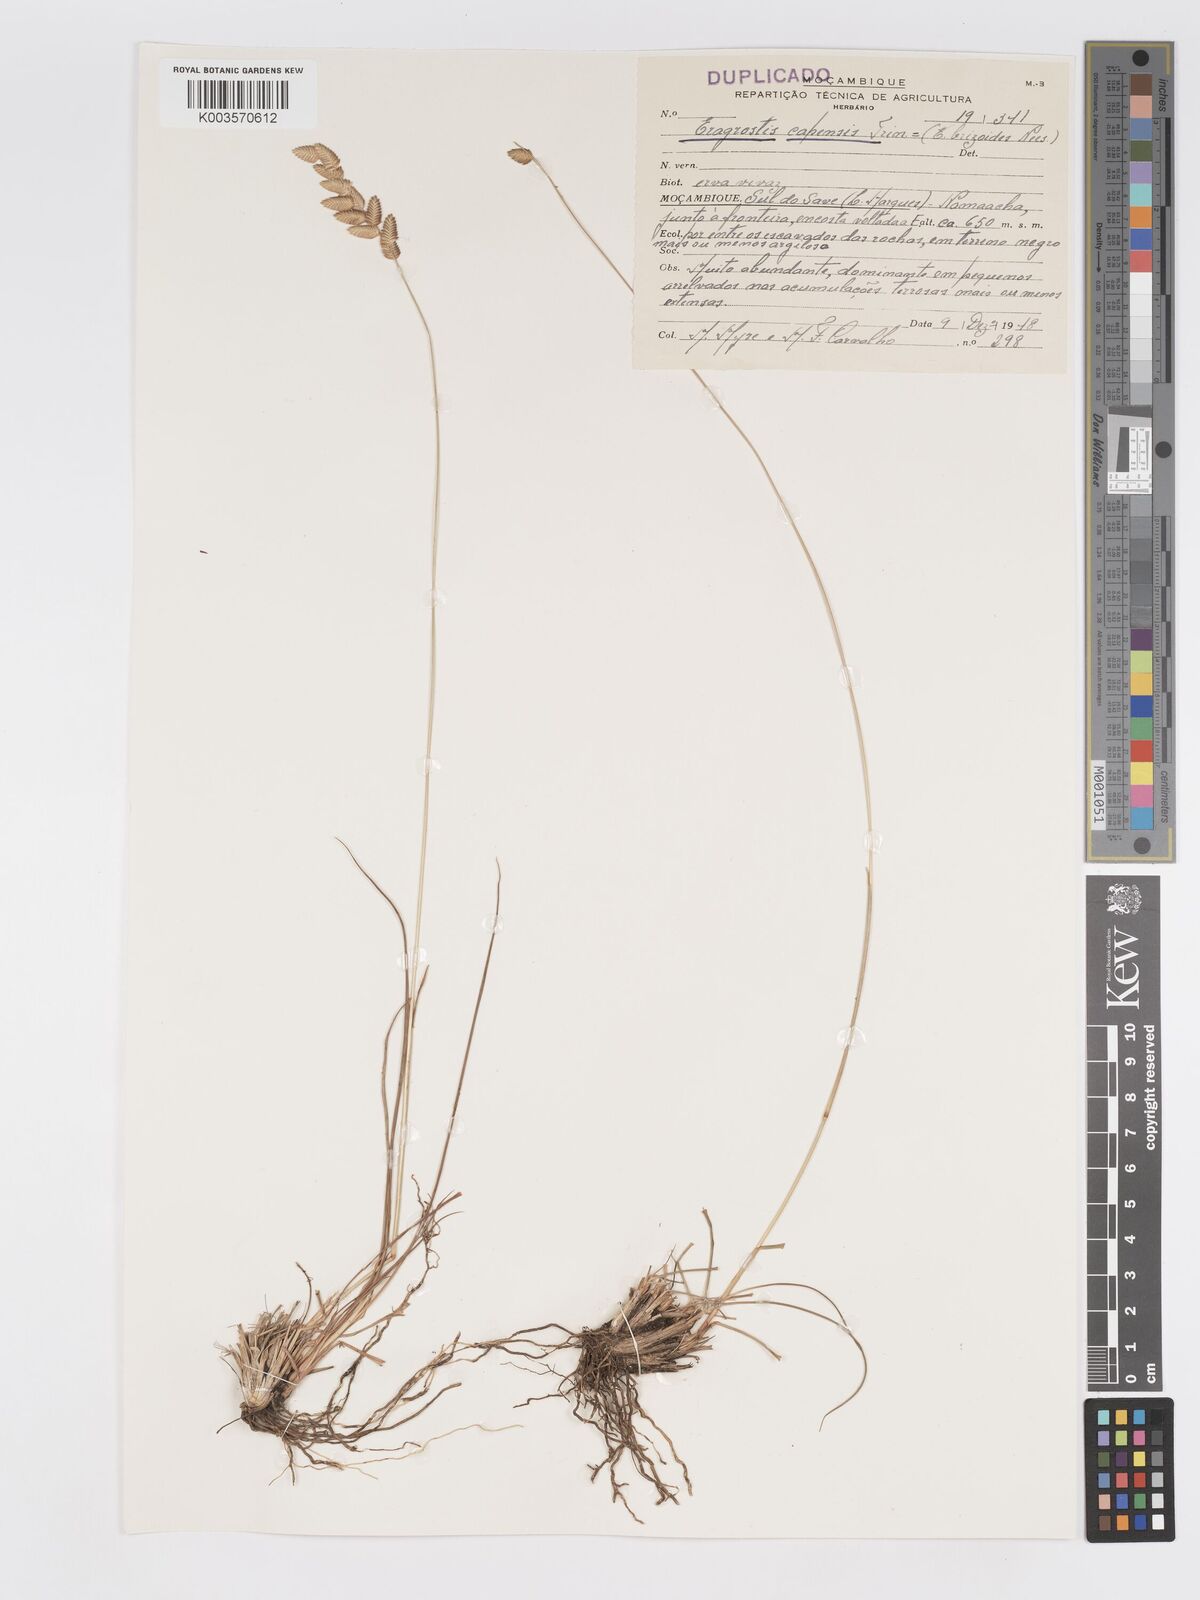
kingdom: Plantae
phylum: Tracheophyta
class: Liliopsida
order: Poales
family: Poaceae
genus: Eragrostis
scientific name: Eragrostis capensis
